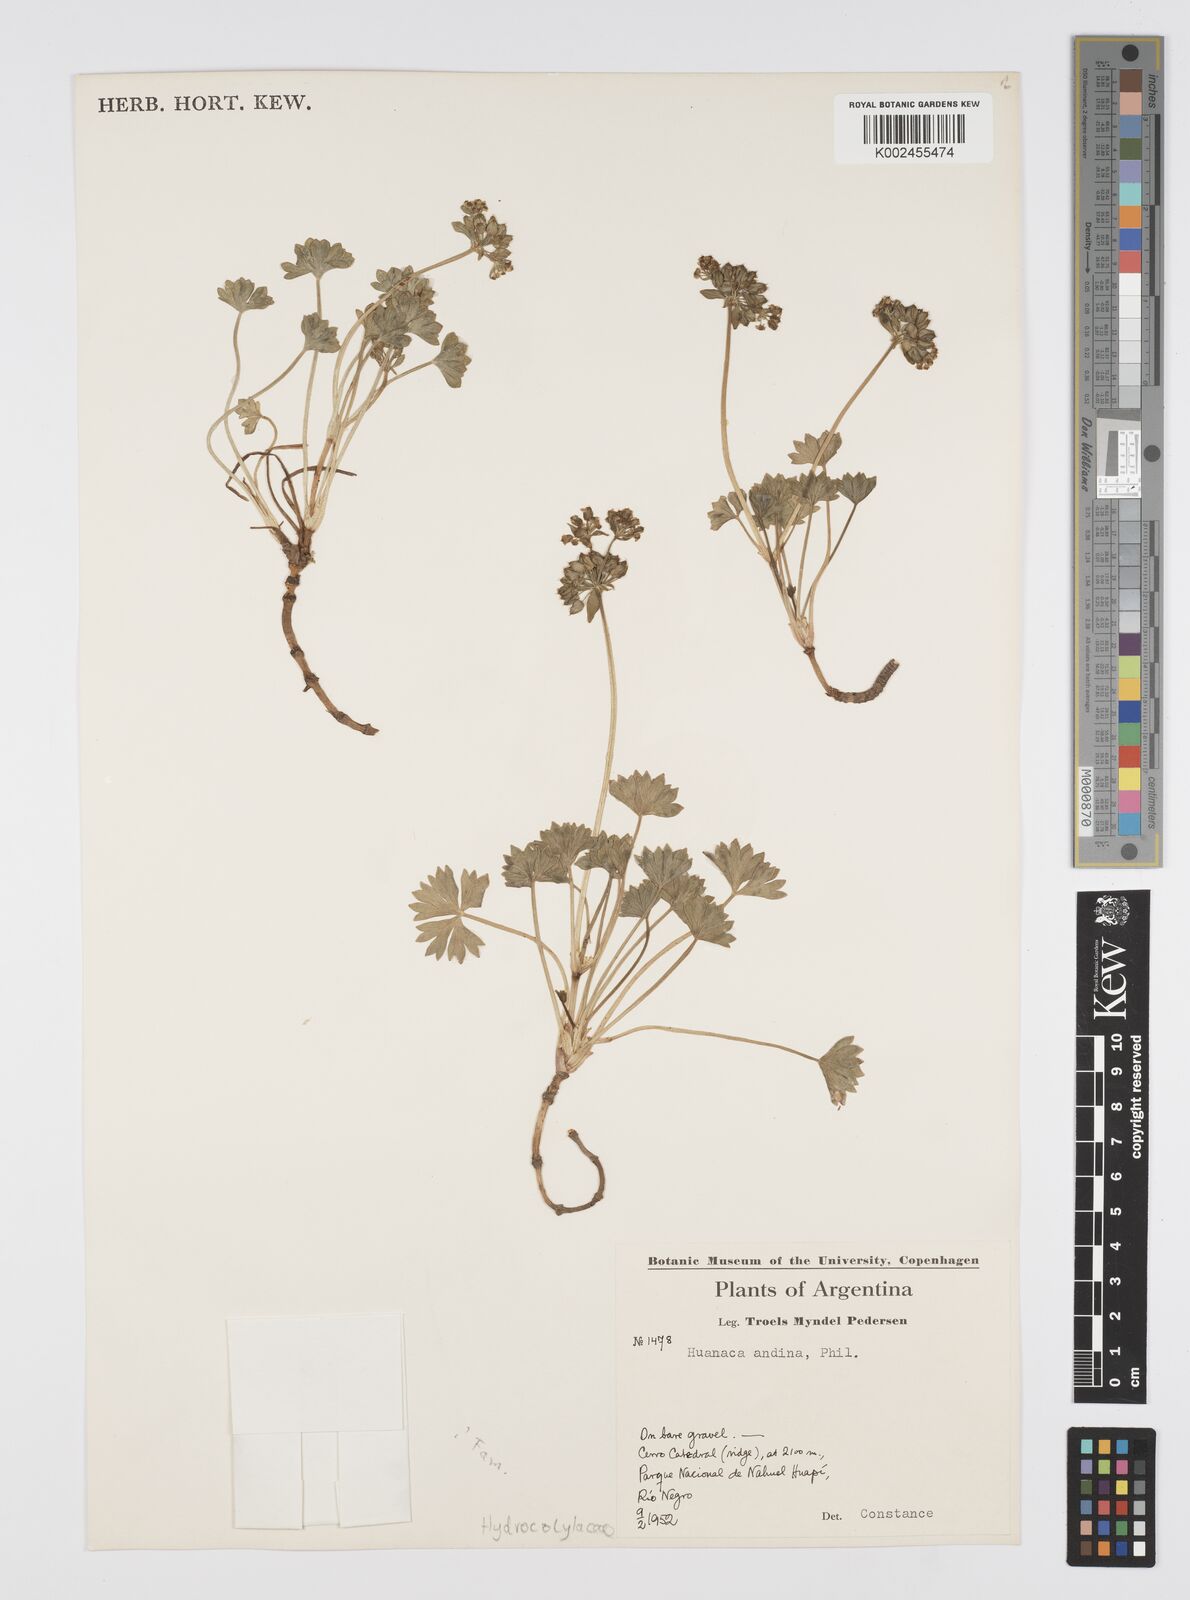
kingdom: Plantae
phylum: Tracheophyta
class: Magnoliopsida
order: Apiales
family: Apiaceae
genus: Azorella
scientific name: Azorella andina
